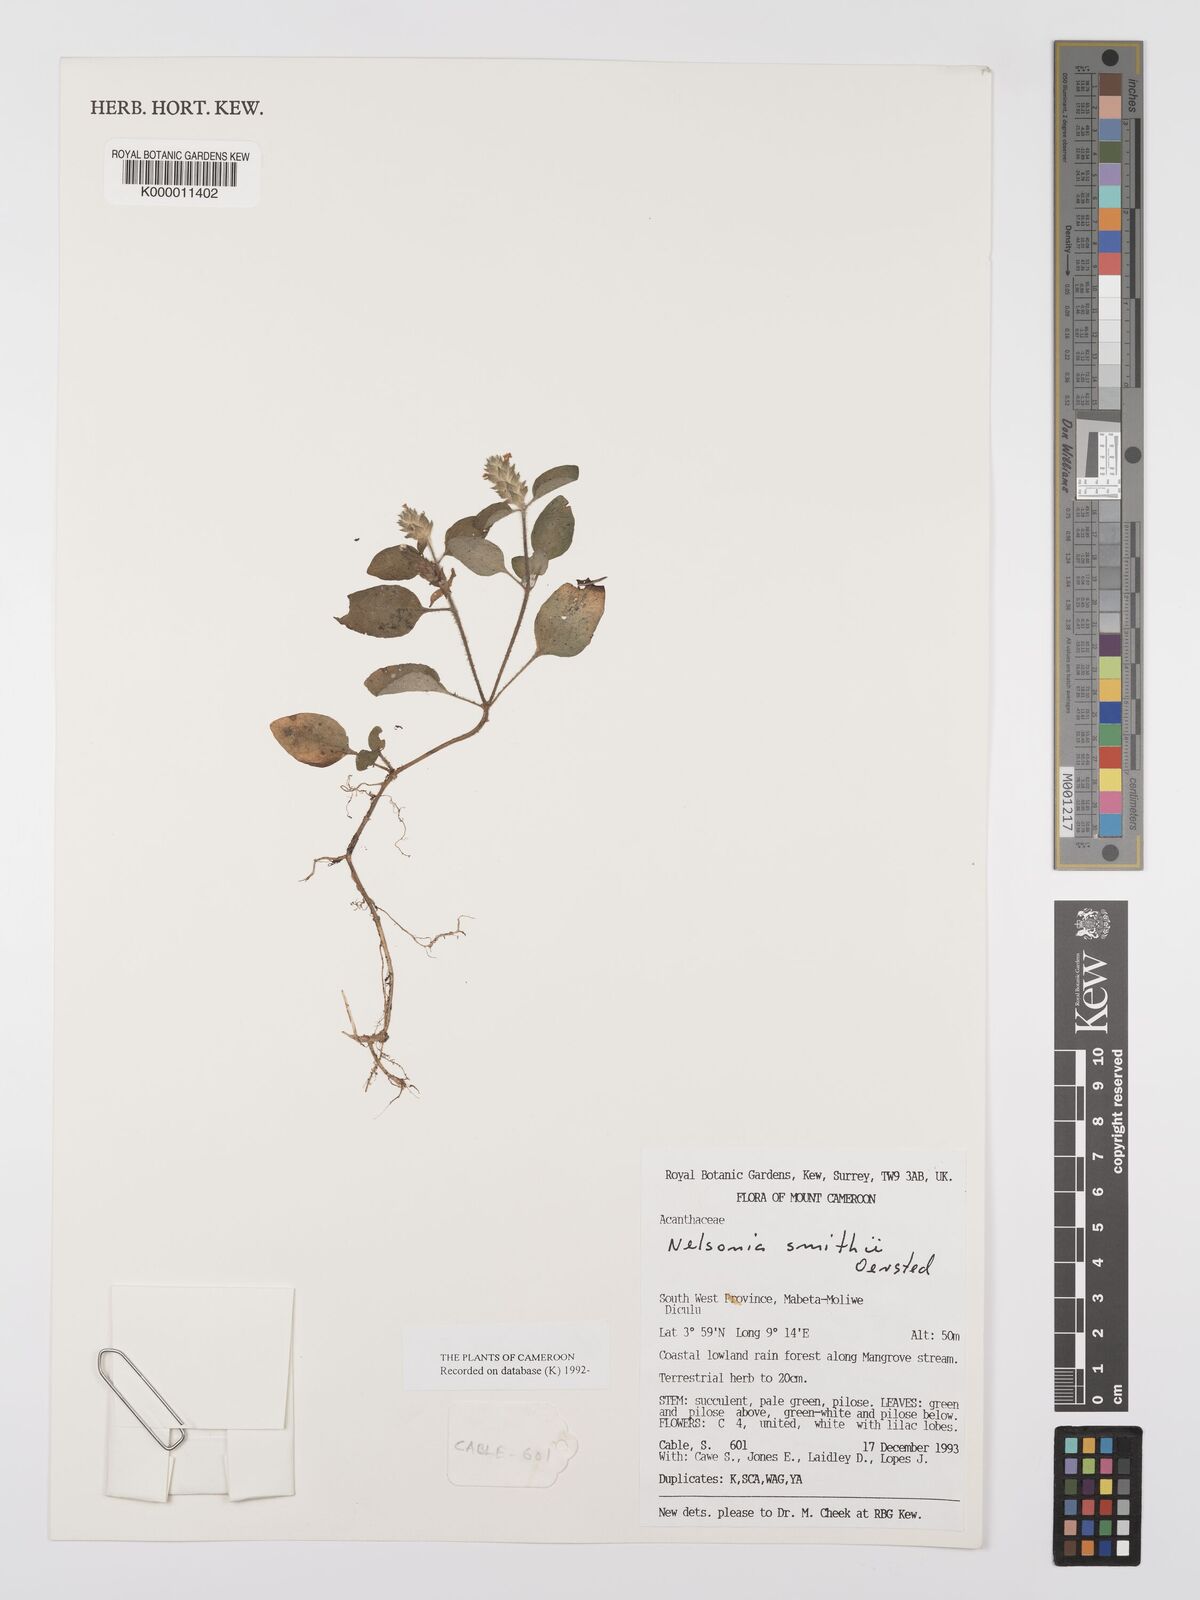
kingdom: Plantae
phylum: Tracheophyta
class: Magnoliopsida
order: Lamiales
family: Acanthaceae
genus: Nelsonia
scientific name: Nelsonia smithii
